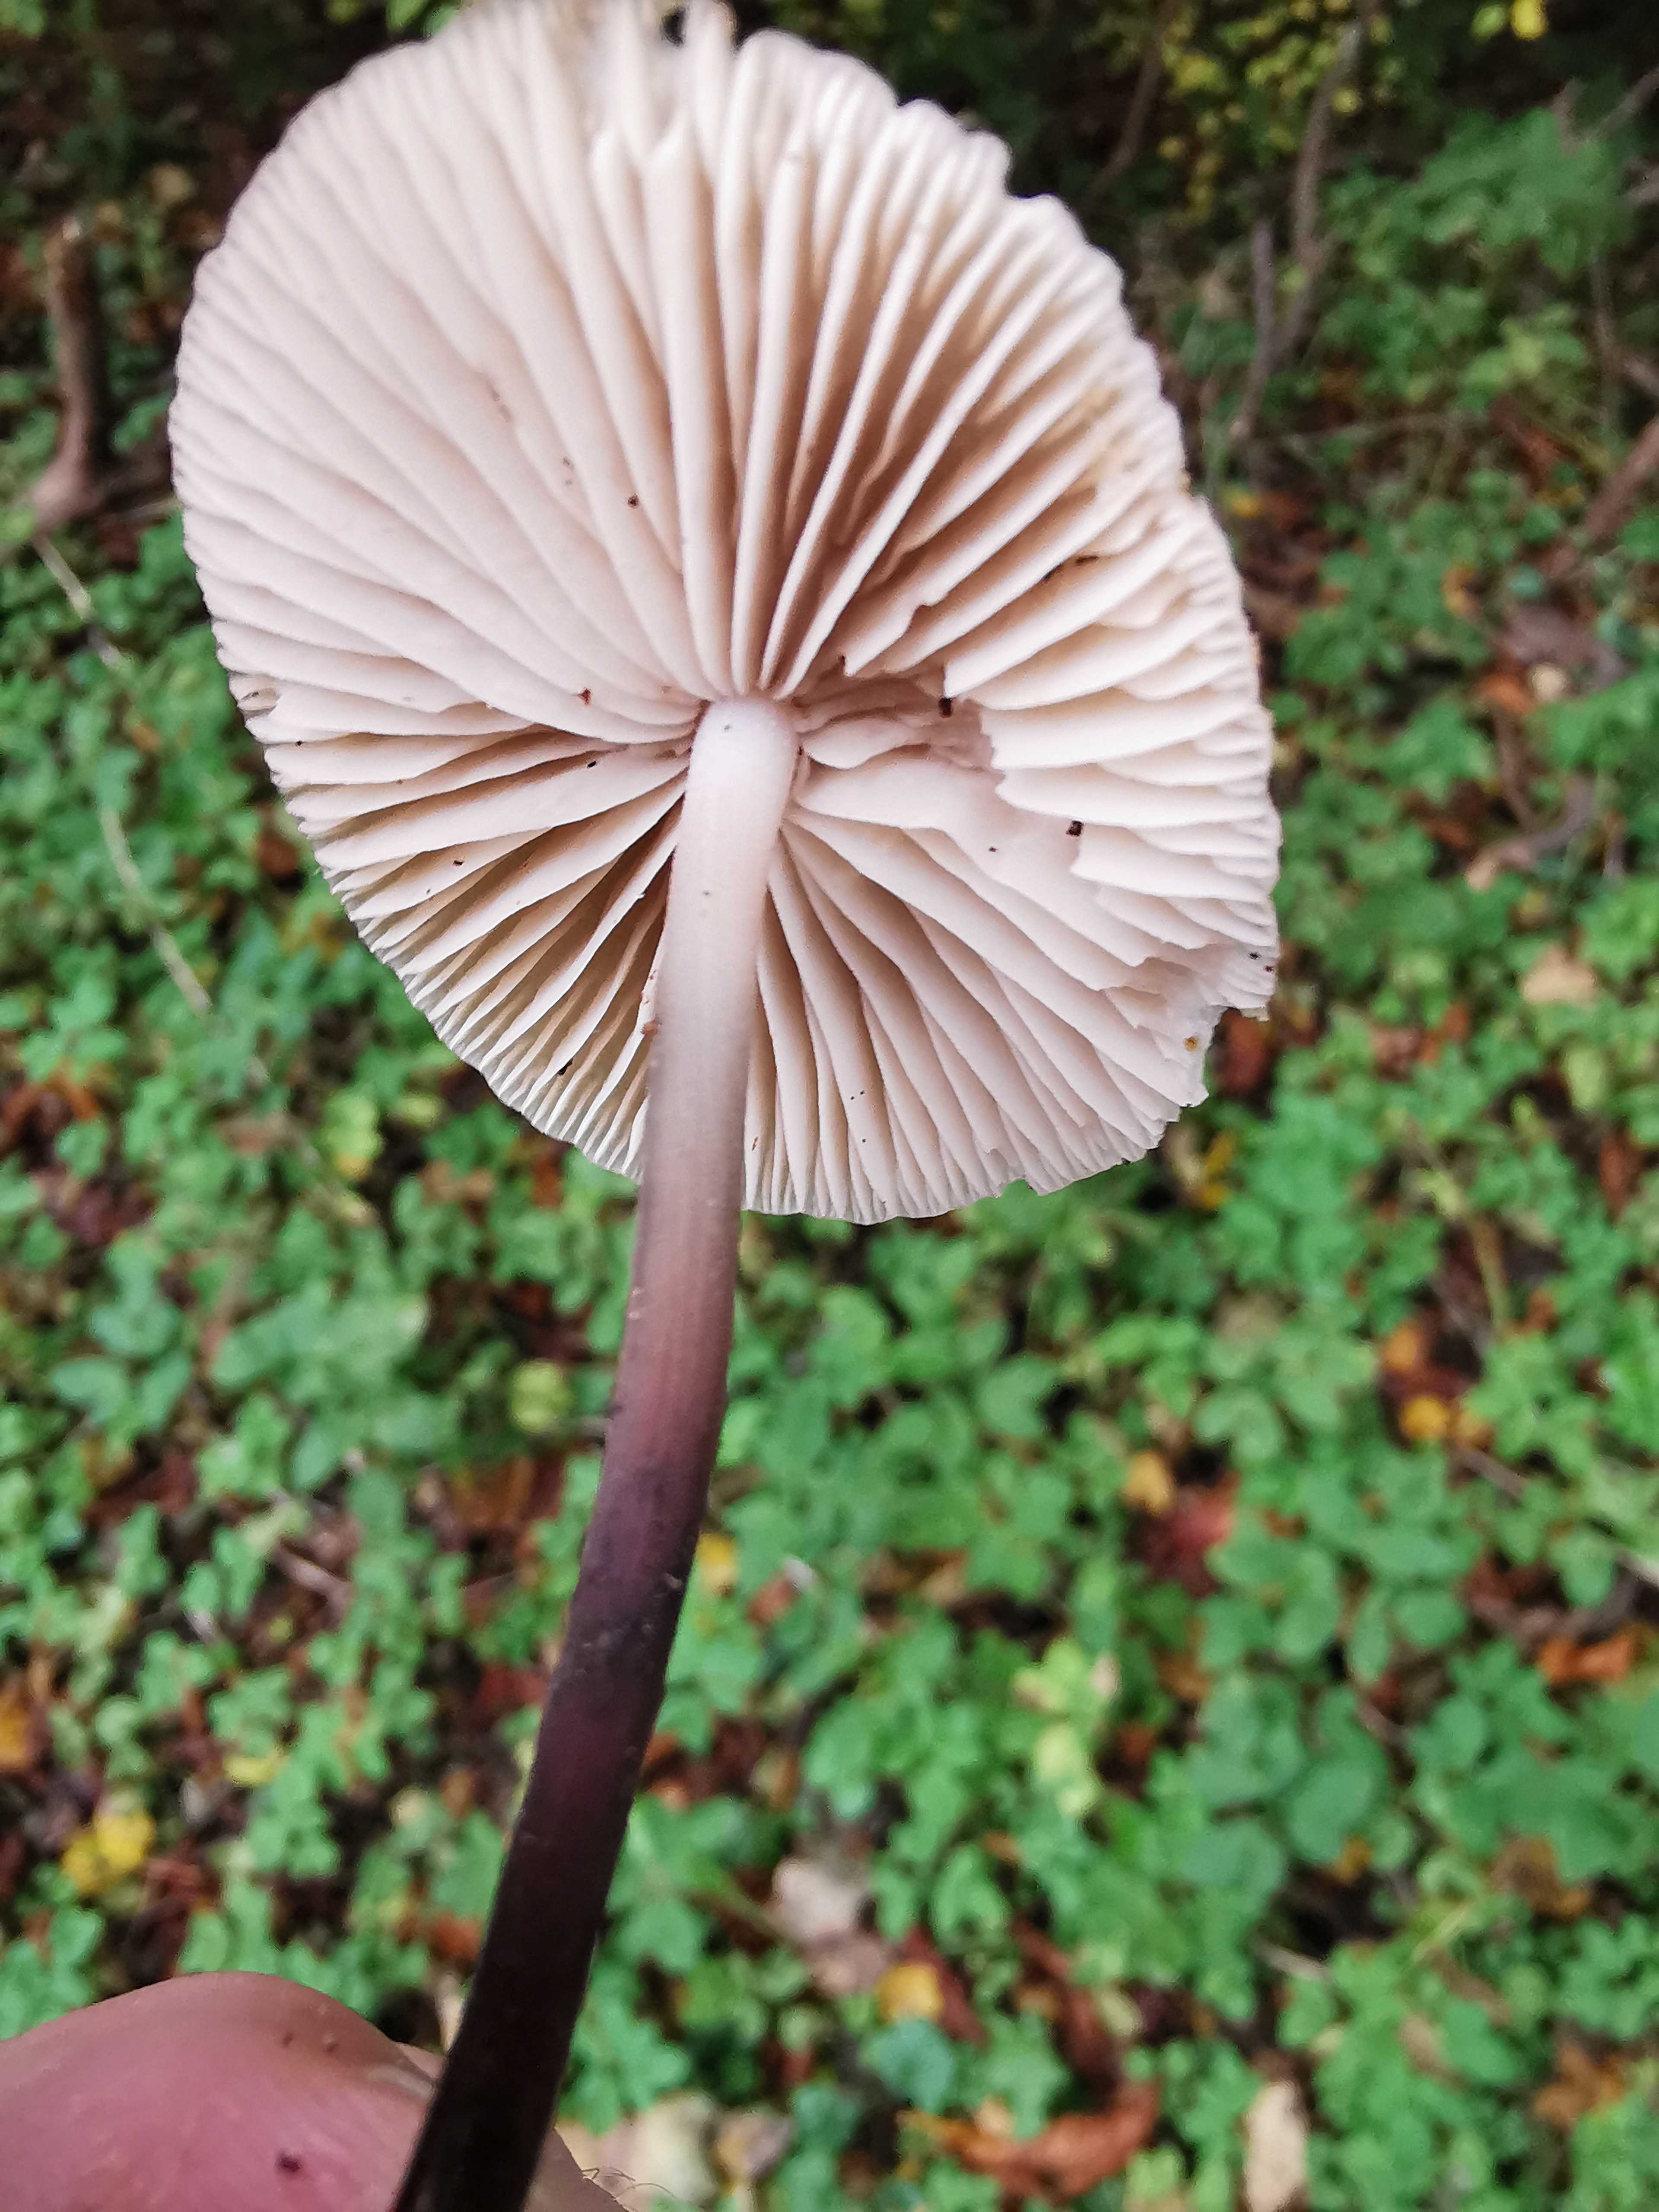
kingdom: Fungi
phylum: Basidiomycota
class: Agaricomycetes
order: Agaricales
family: Marasmiaceae
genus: Marasmius
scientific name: Marasmius wynneae
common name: hvælvet bruskhat
